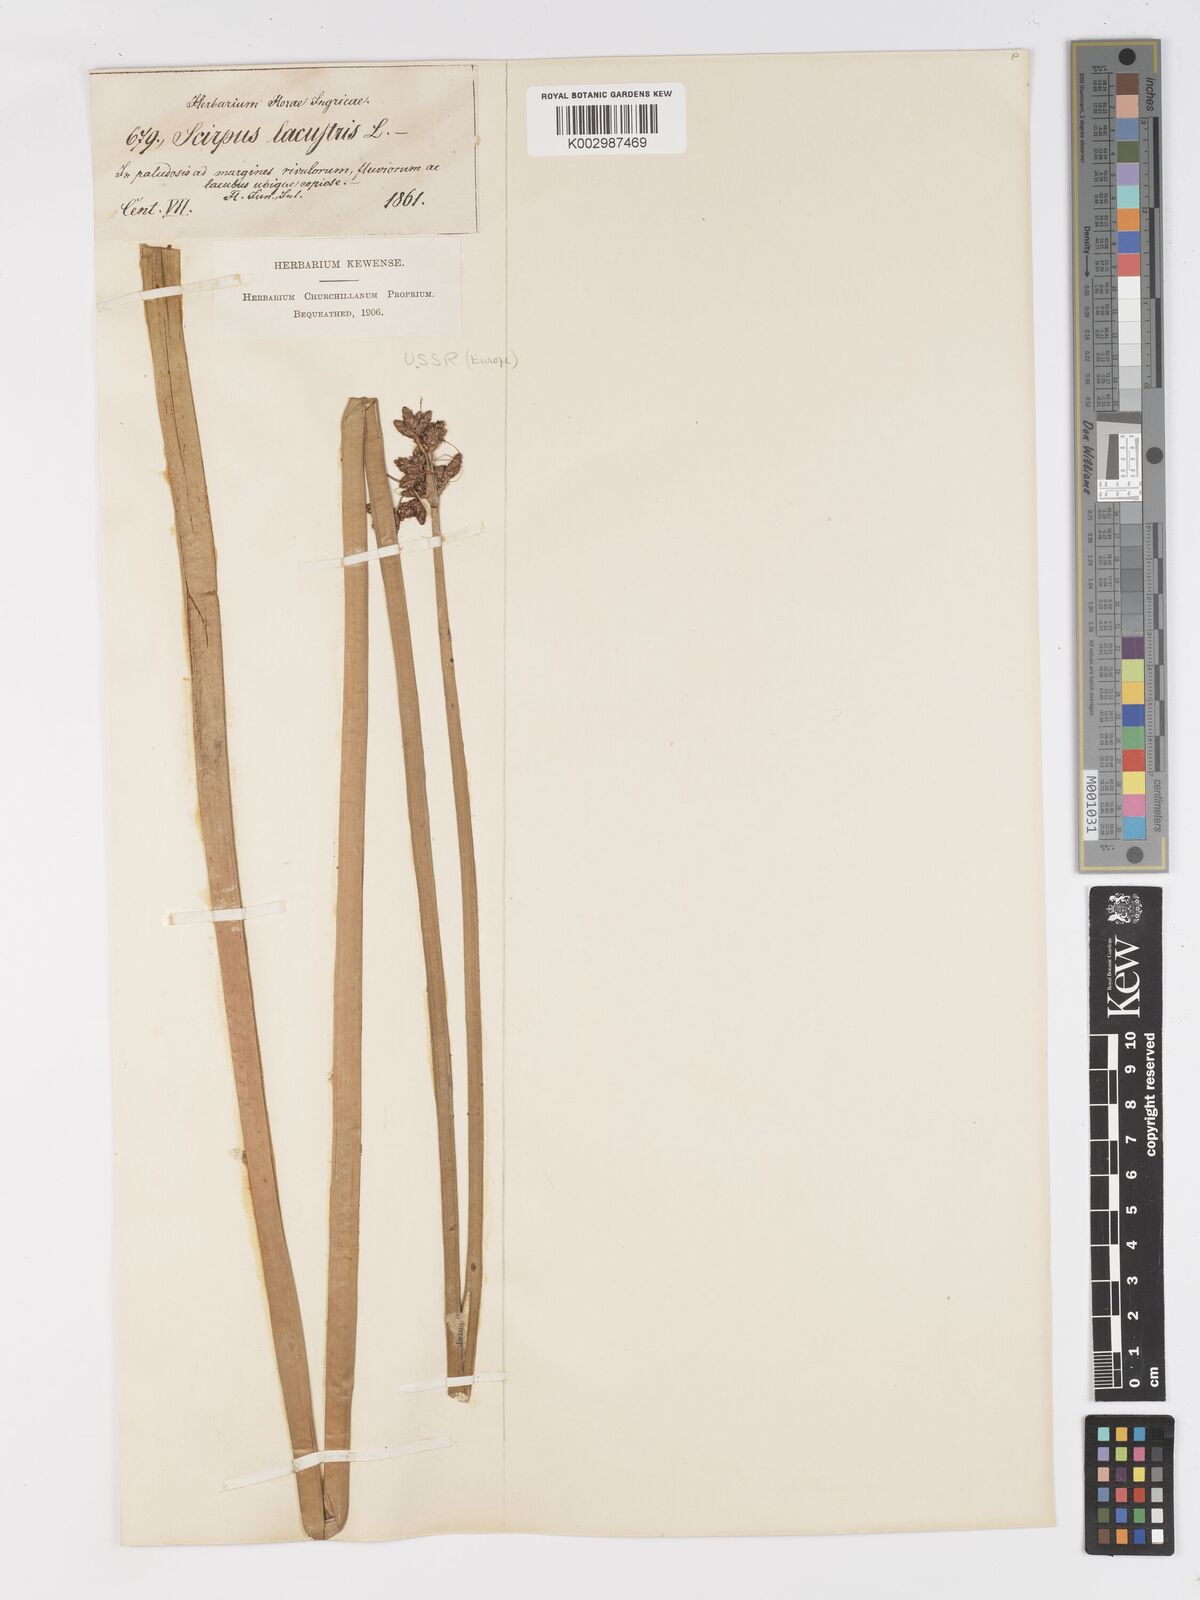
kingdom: Plantae
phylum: Tracheophyta
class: Liliopsida
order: Poales
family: Cyperaceae
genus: Schoenoplectus
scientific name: Schoenoplectus lacustris
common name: Common club-rush
